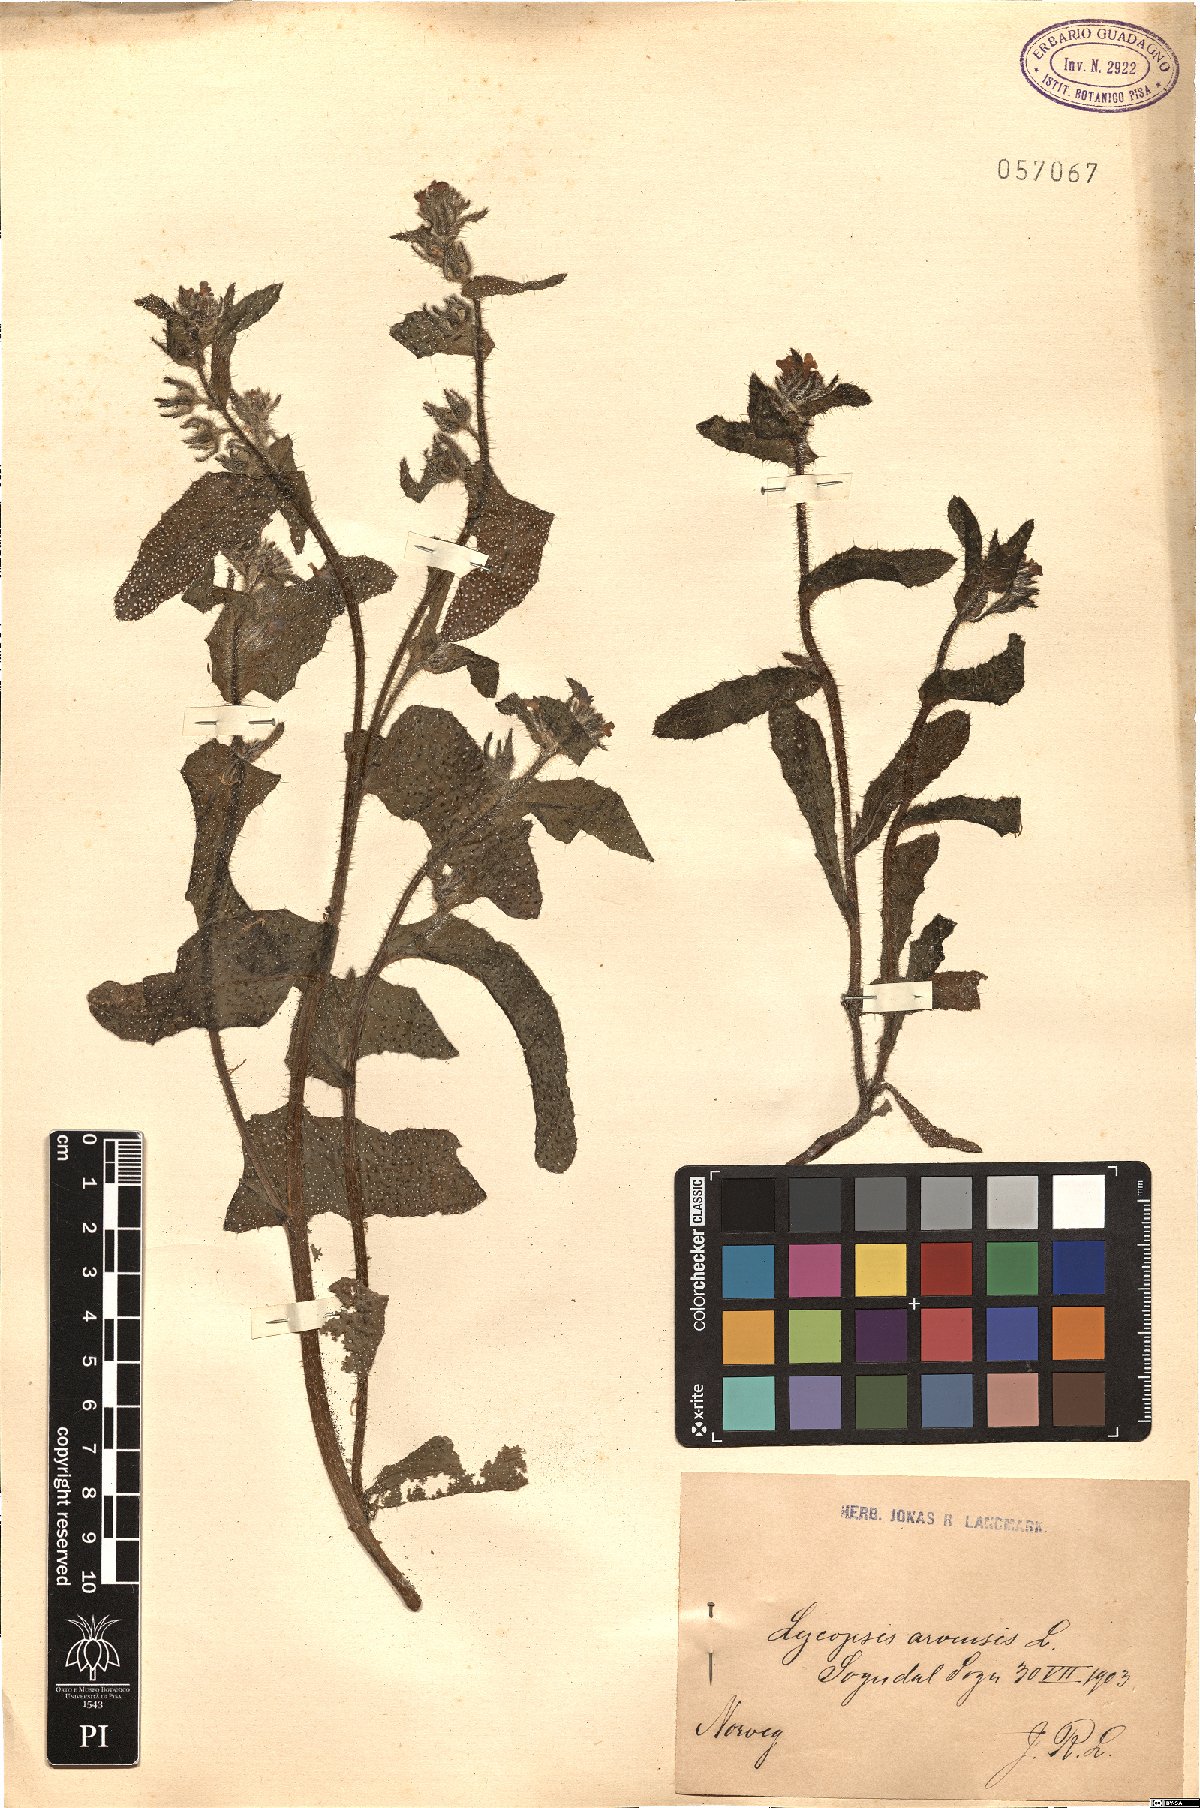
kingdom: Plantae
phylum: Tracheophyta
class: Magnoliopsida
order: Boraginales
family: Boraginaceae
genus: Lycopsis
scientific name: Lycopsis arvensis
